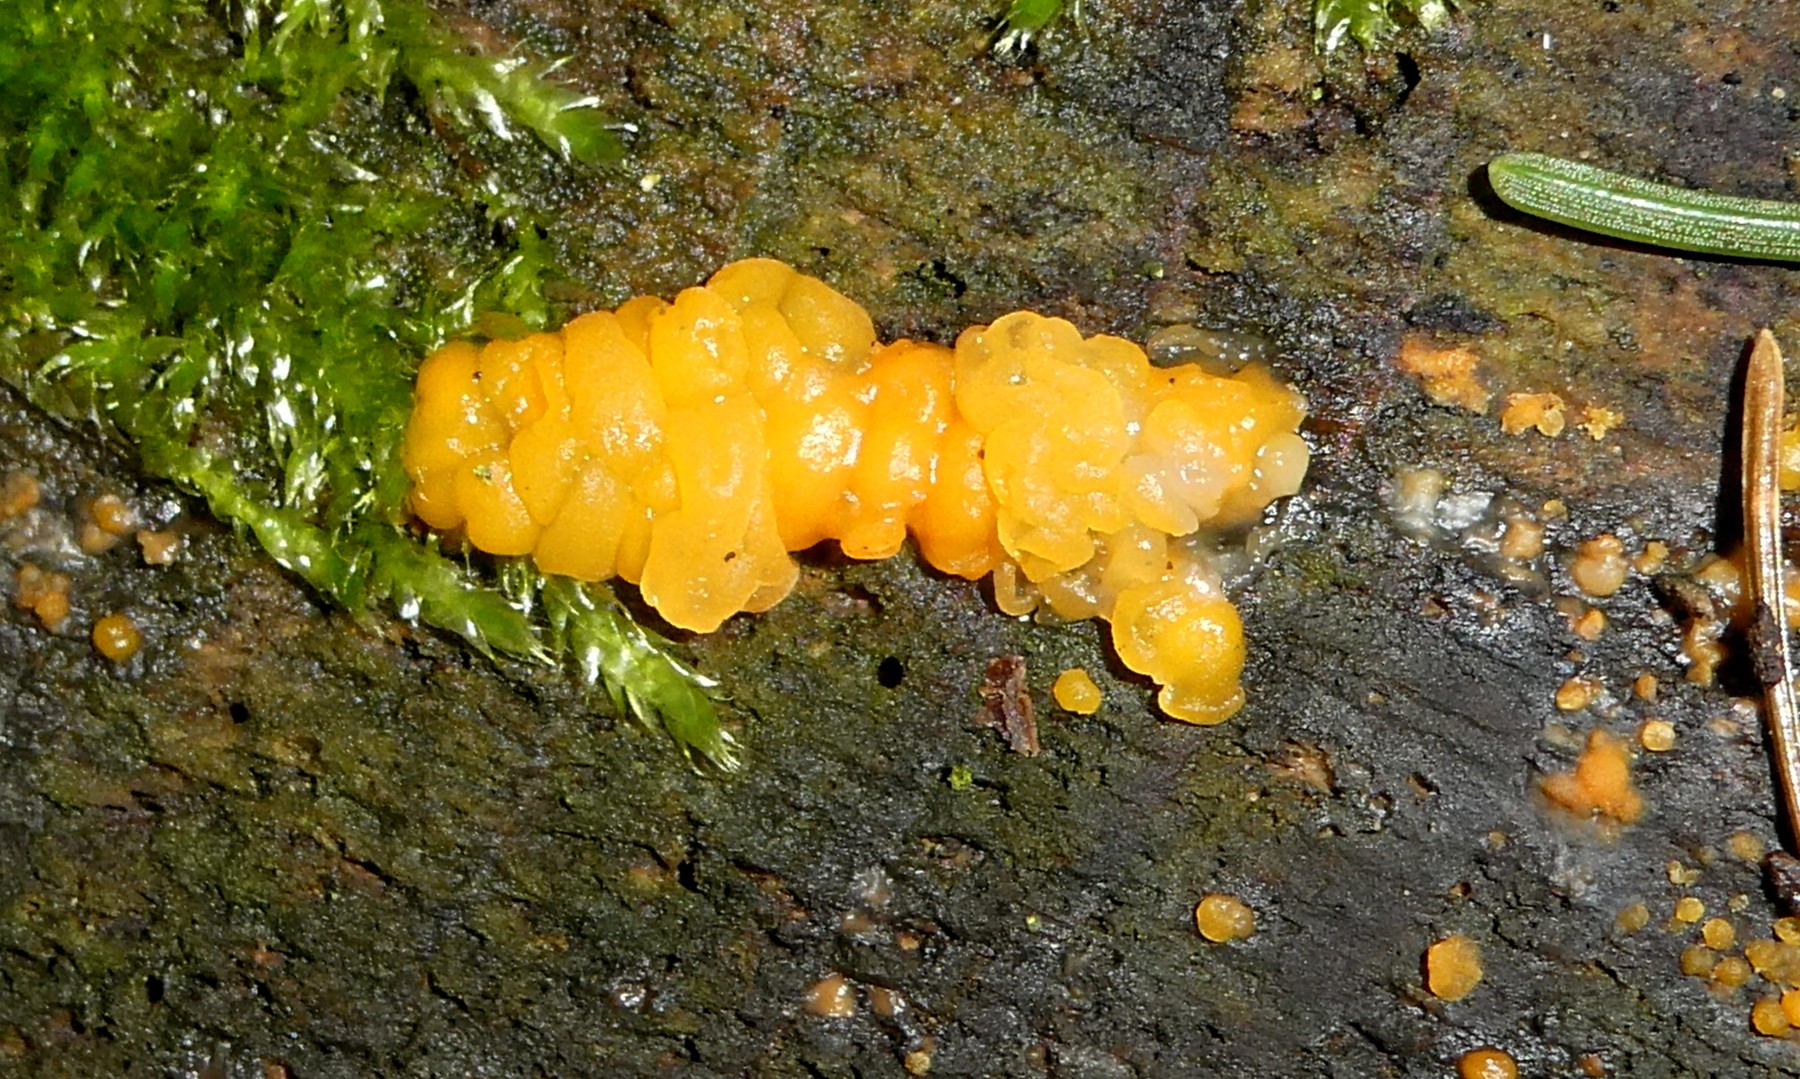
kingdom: Fungi
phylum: Basidiomycota
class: Dacrymycetes
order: Dacrymycetales
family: Dacrymycetaceae
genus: Dacrymyces
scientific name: Dacrymyces stillatus
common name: almindelig tåresvamp
